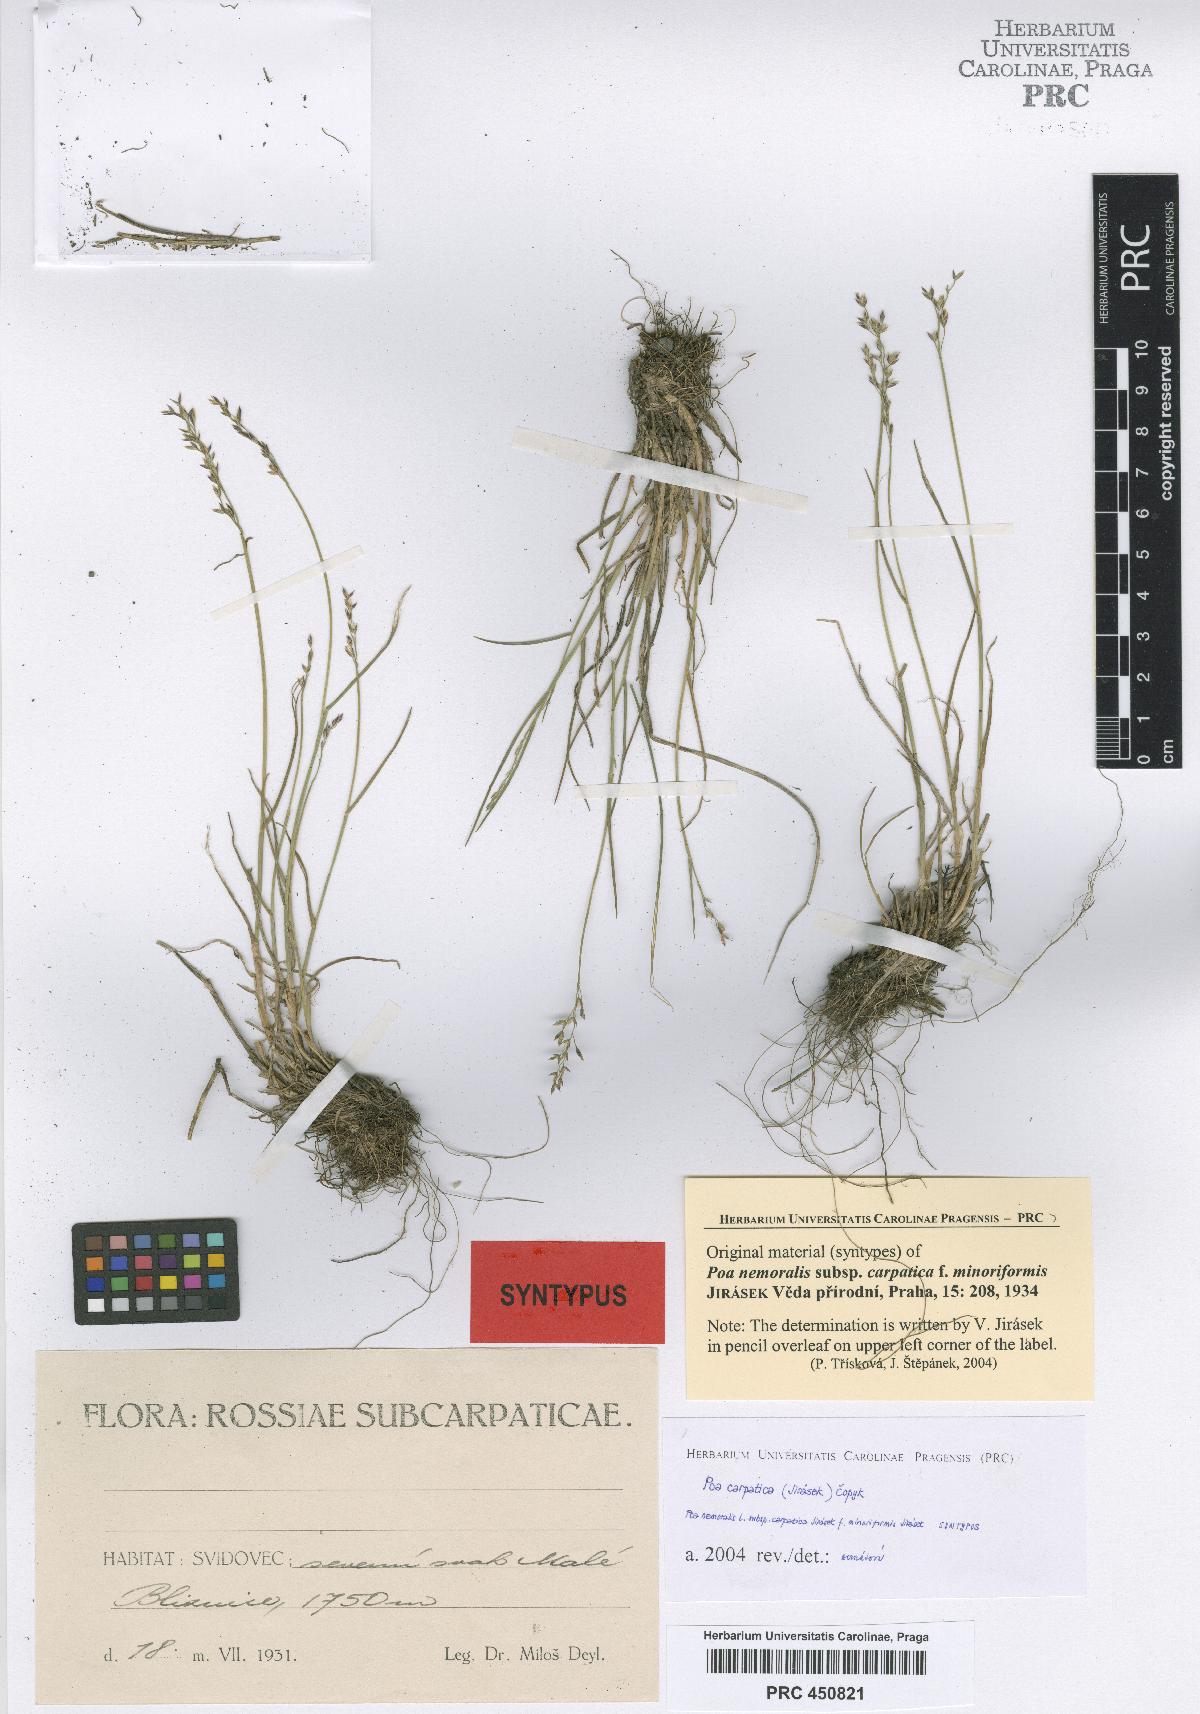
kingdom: Plantae
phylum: Tracheophyta
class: Liliopsida
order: Poales
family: Poaceae
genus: Poa
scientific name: Poa carpatica
